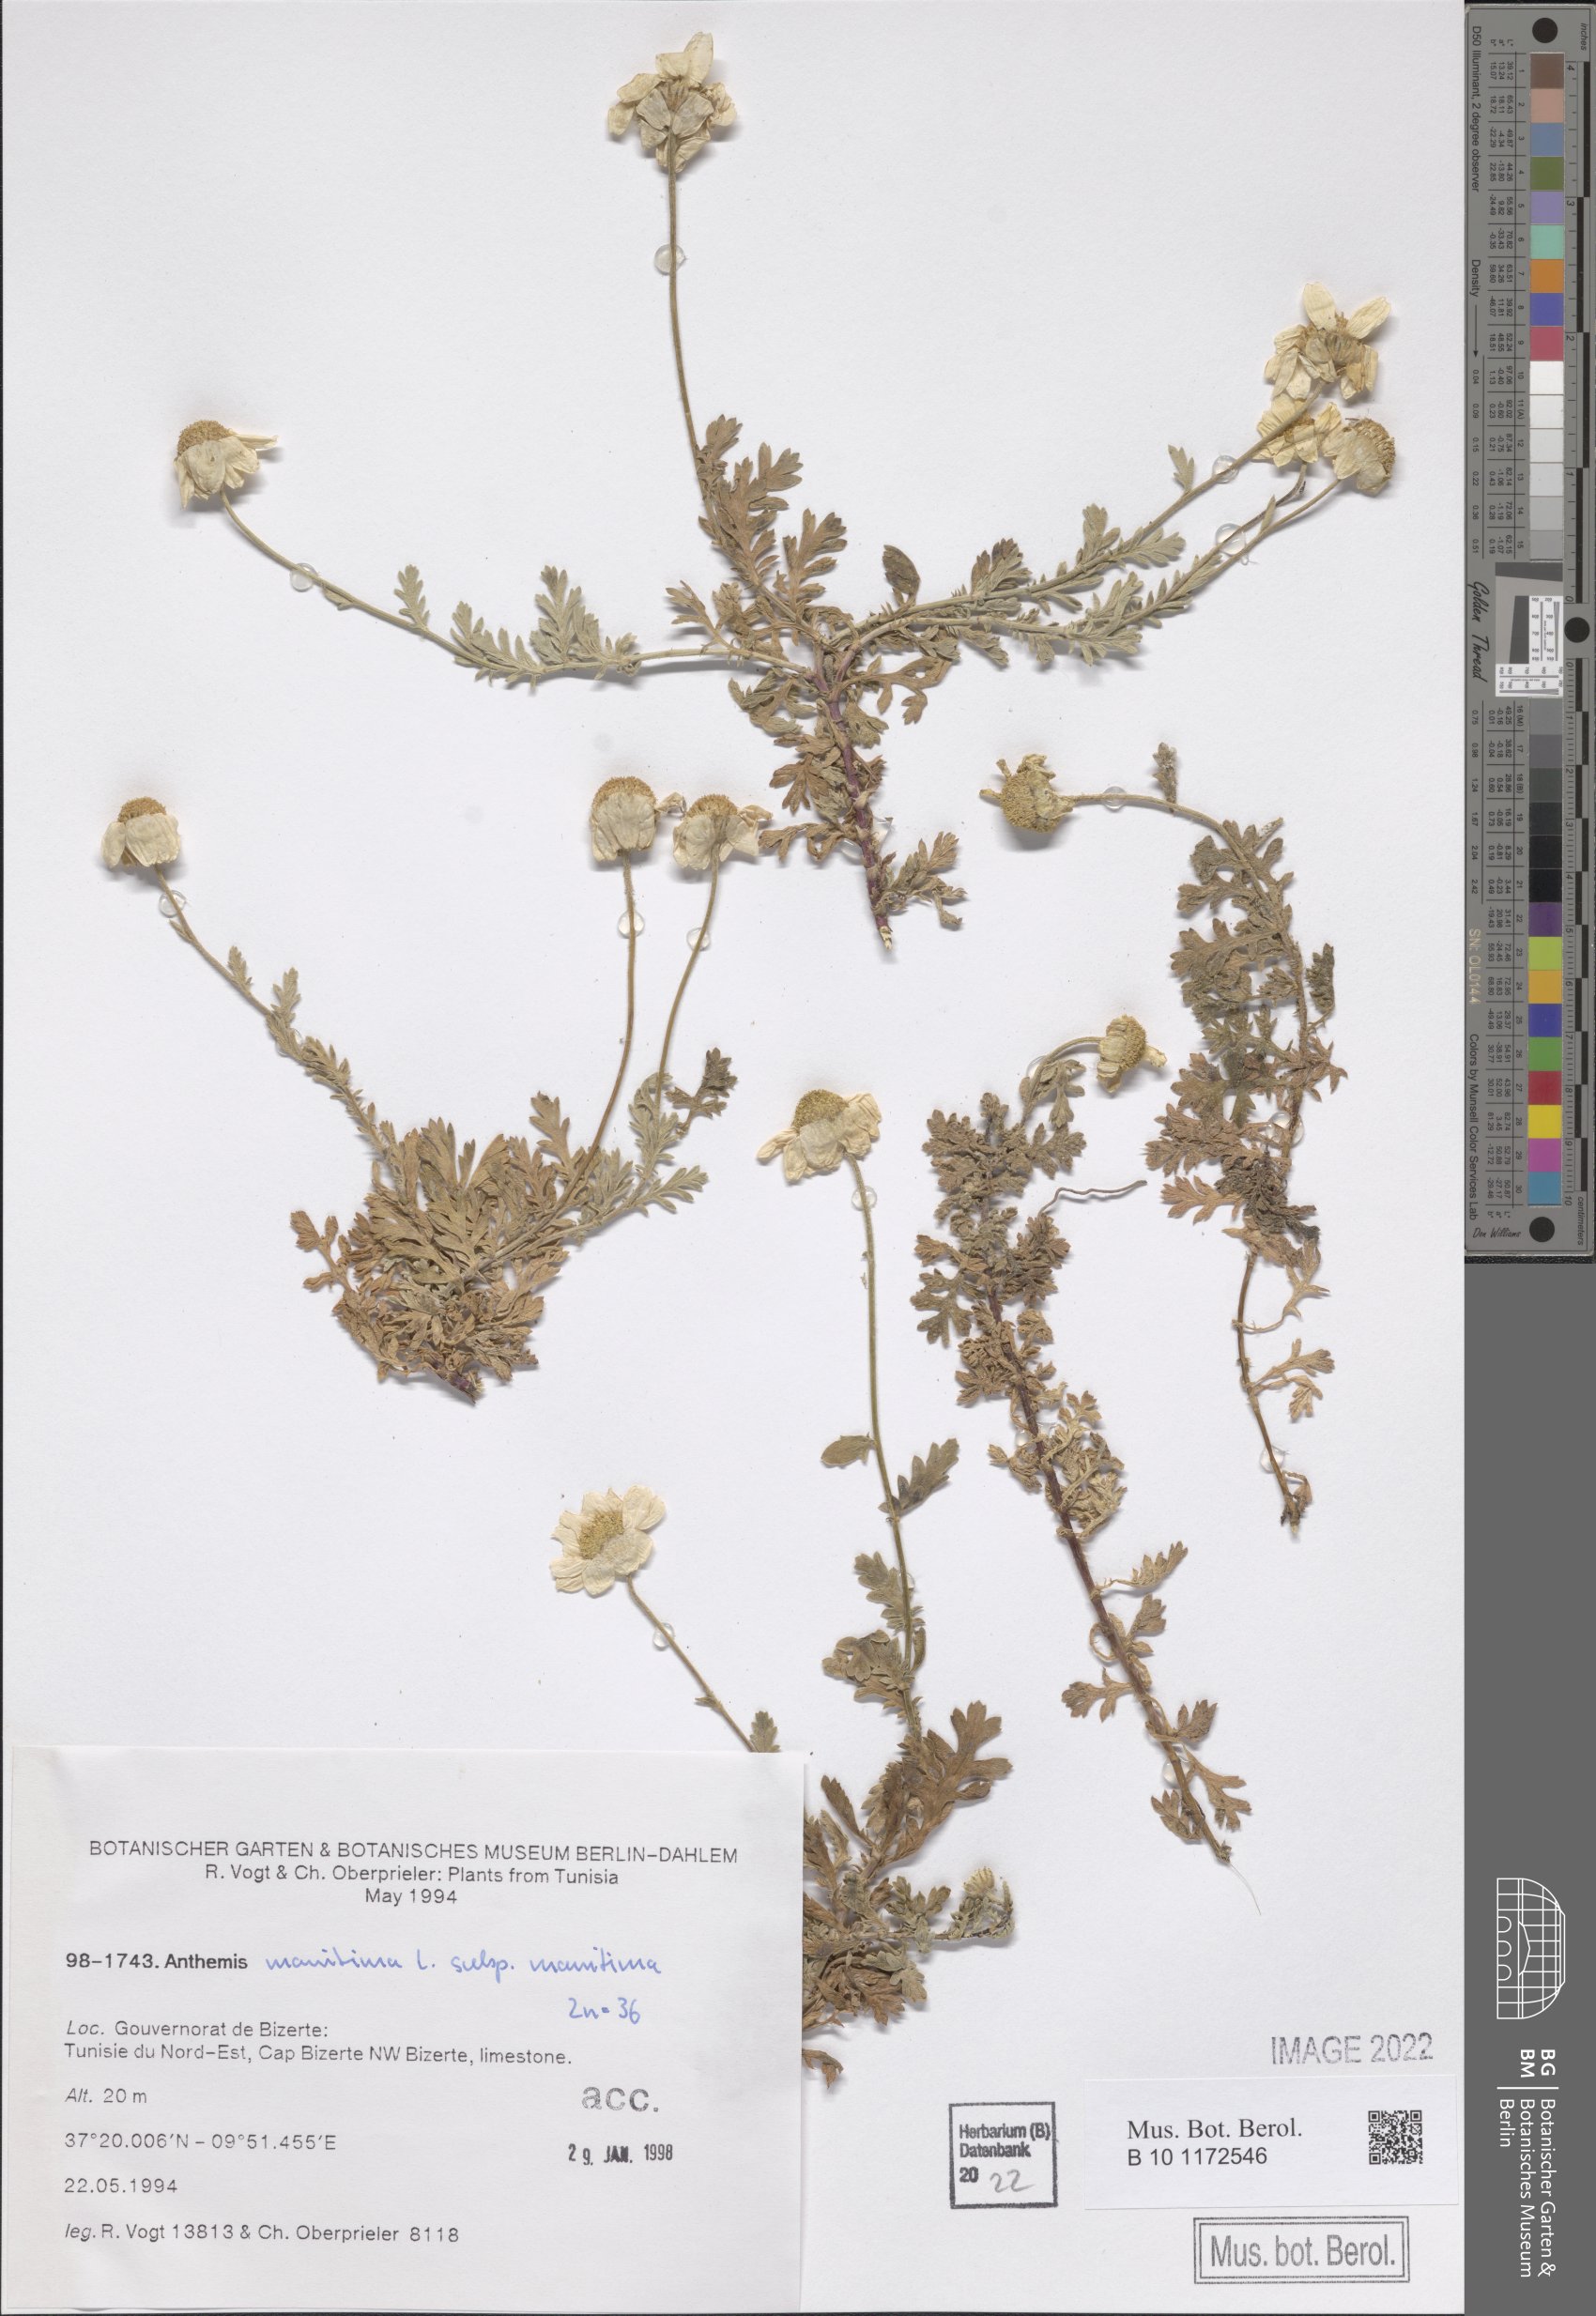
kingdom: Plantae
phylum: Tracheophyta
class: Magnoliopsida
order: Asterales
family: Asteraceae
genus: Anthemis
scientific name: Anthemis maritima
